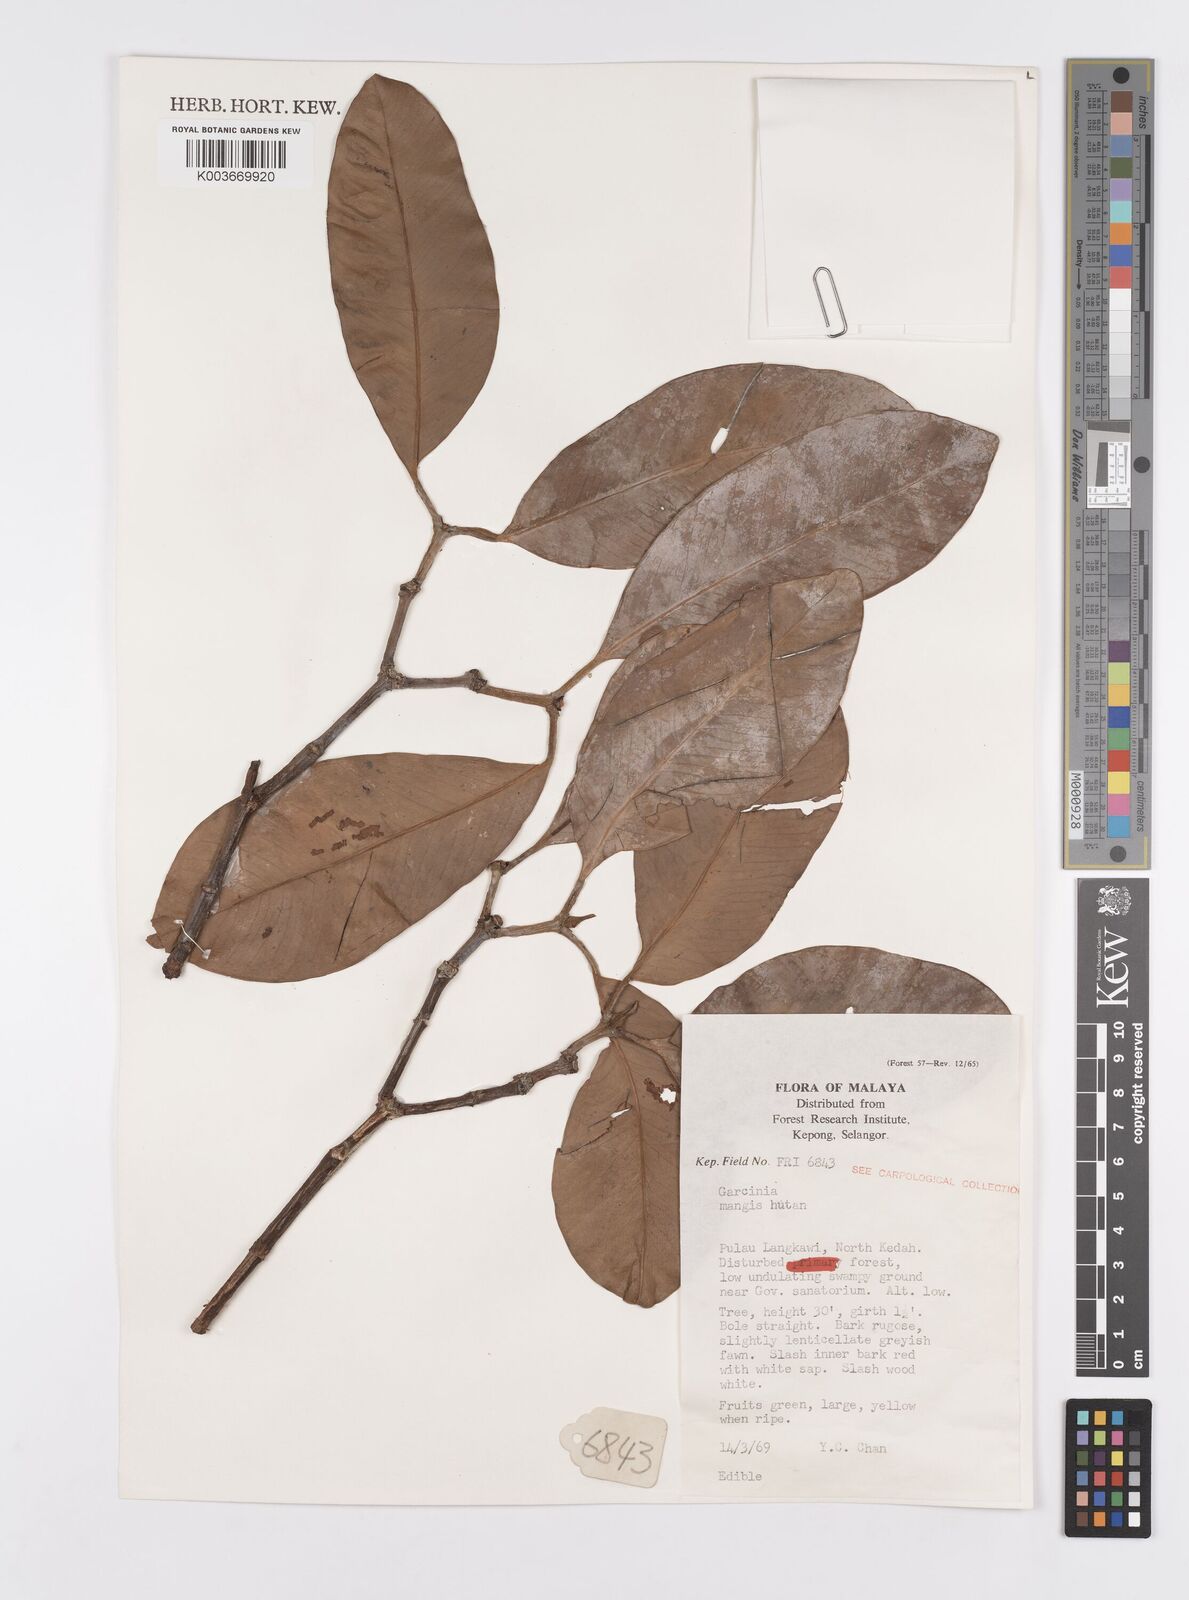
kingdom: Plantae
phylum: Tracheophyta
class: Magnoliopsida
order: Malpighiales
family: Clusiaceae
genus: Garcinia
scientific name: Garcinia
